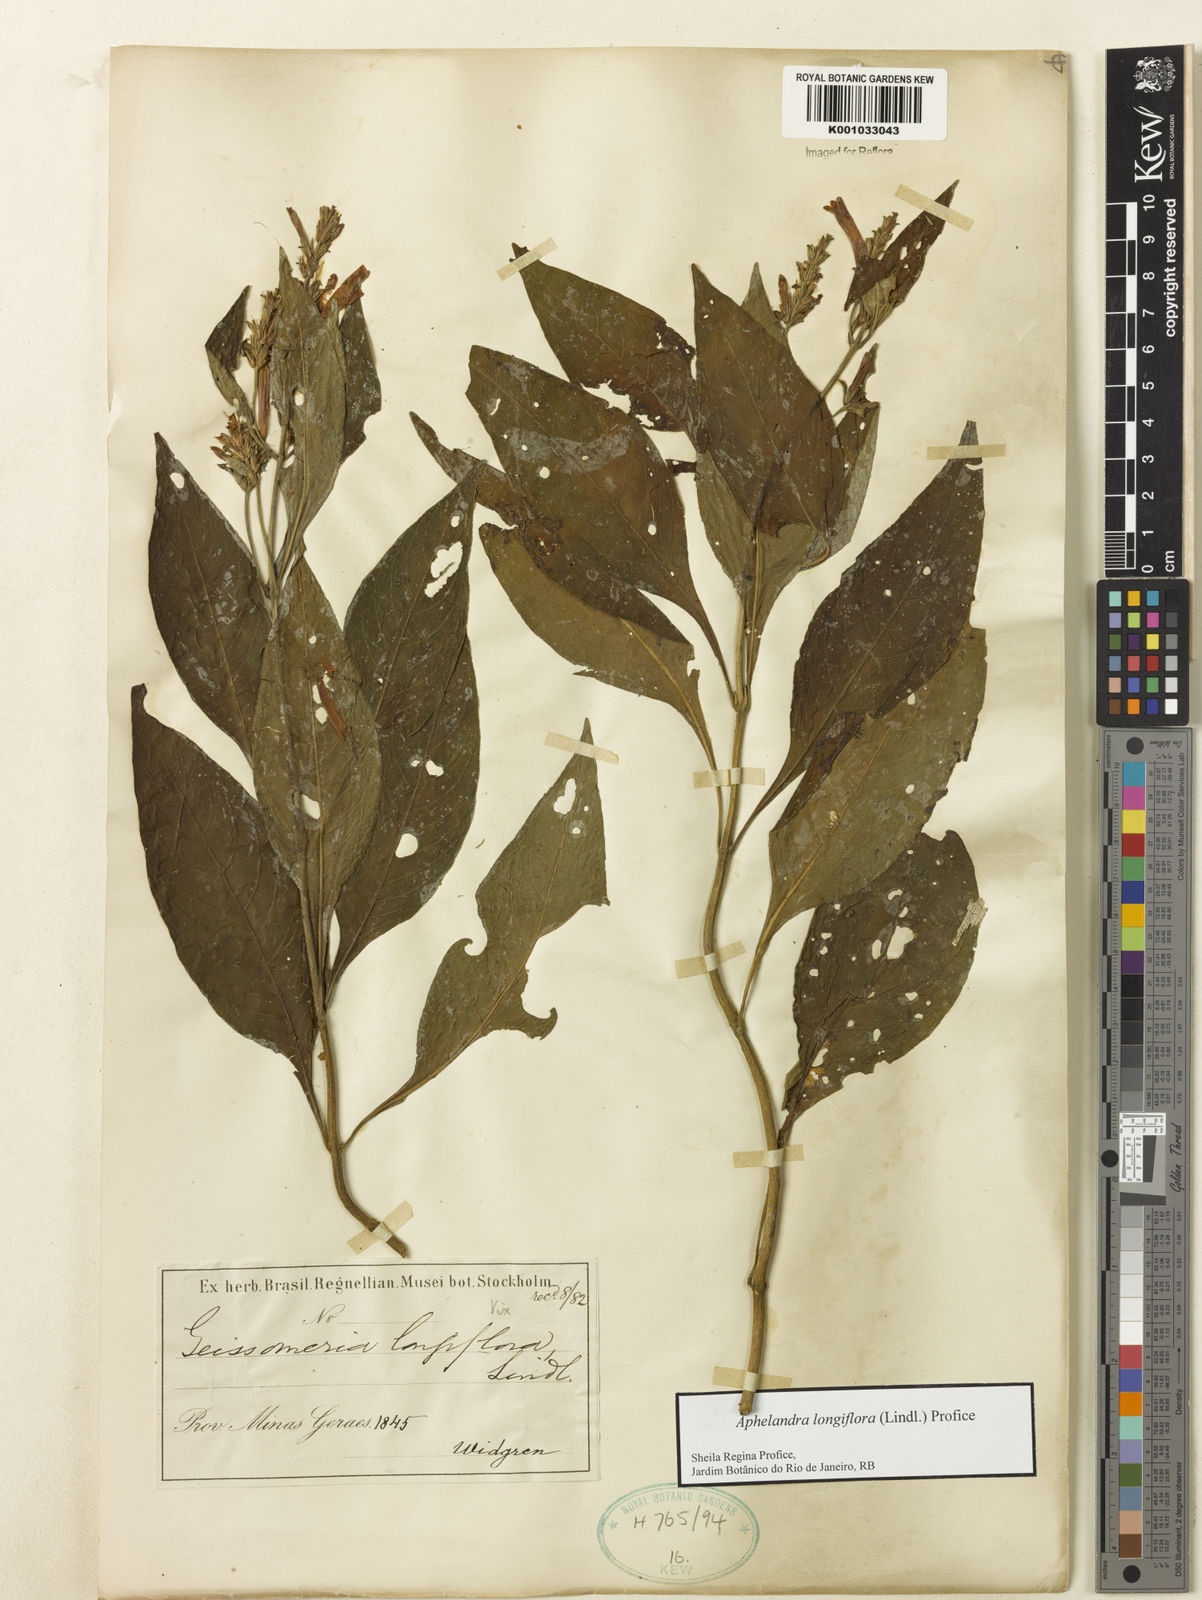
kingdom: Plantae
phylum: Tracheophyta
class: Magnoliopsida
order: Lamiales
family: Acanthaceae
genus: Aphelandra
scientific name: Aphelandra longiflora
